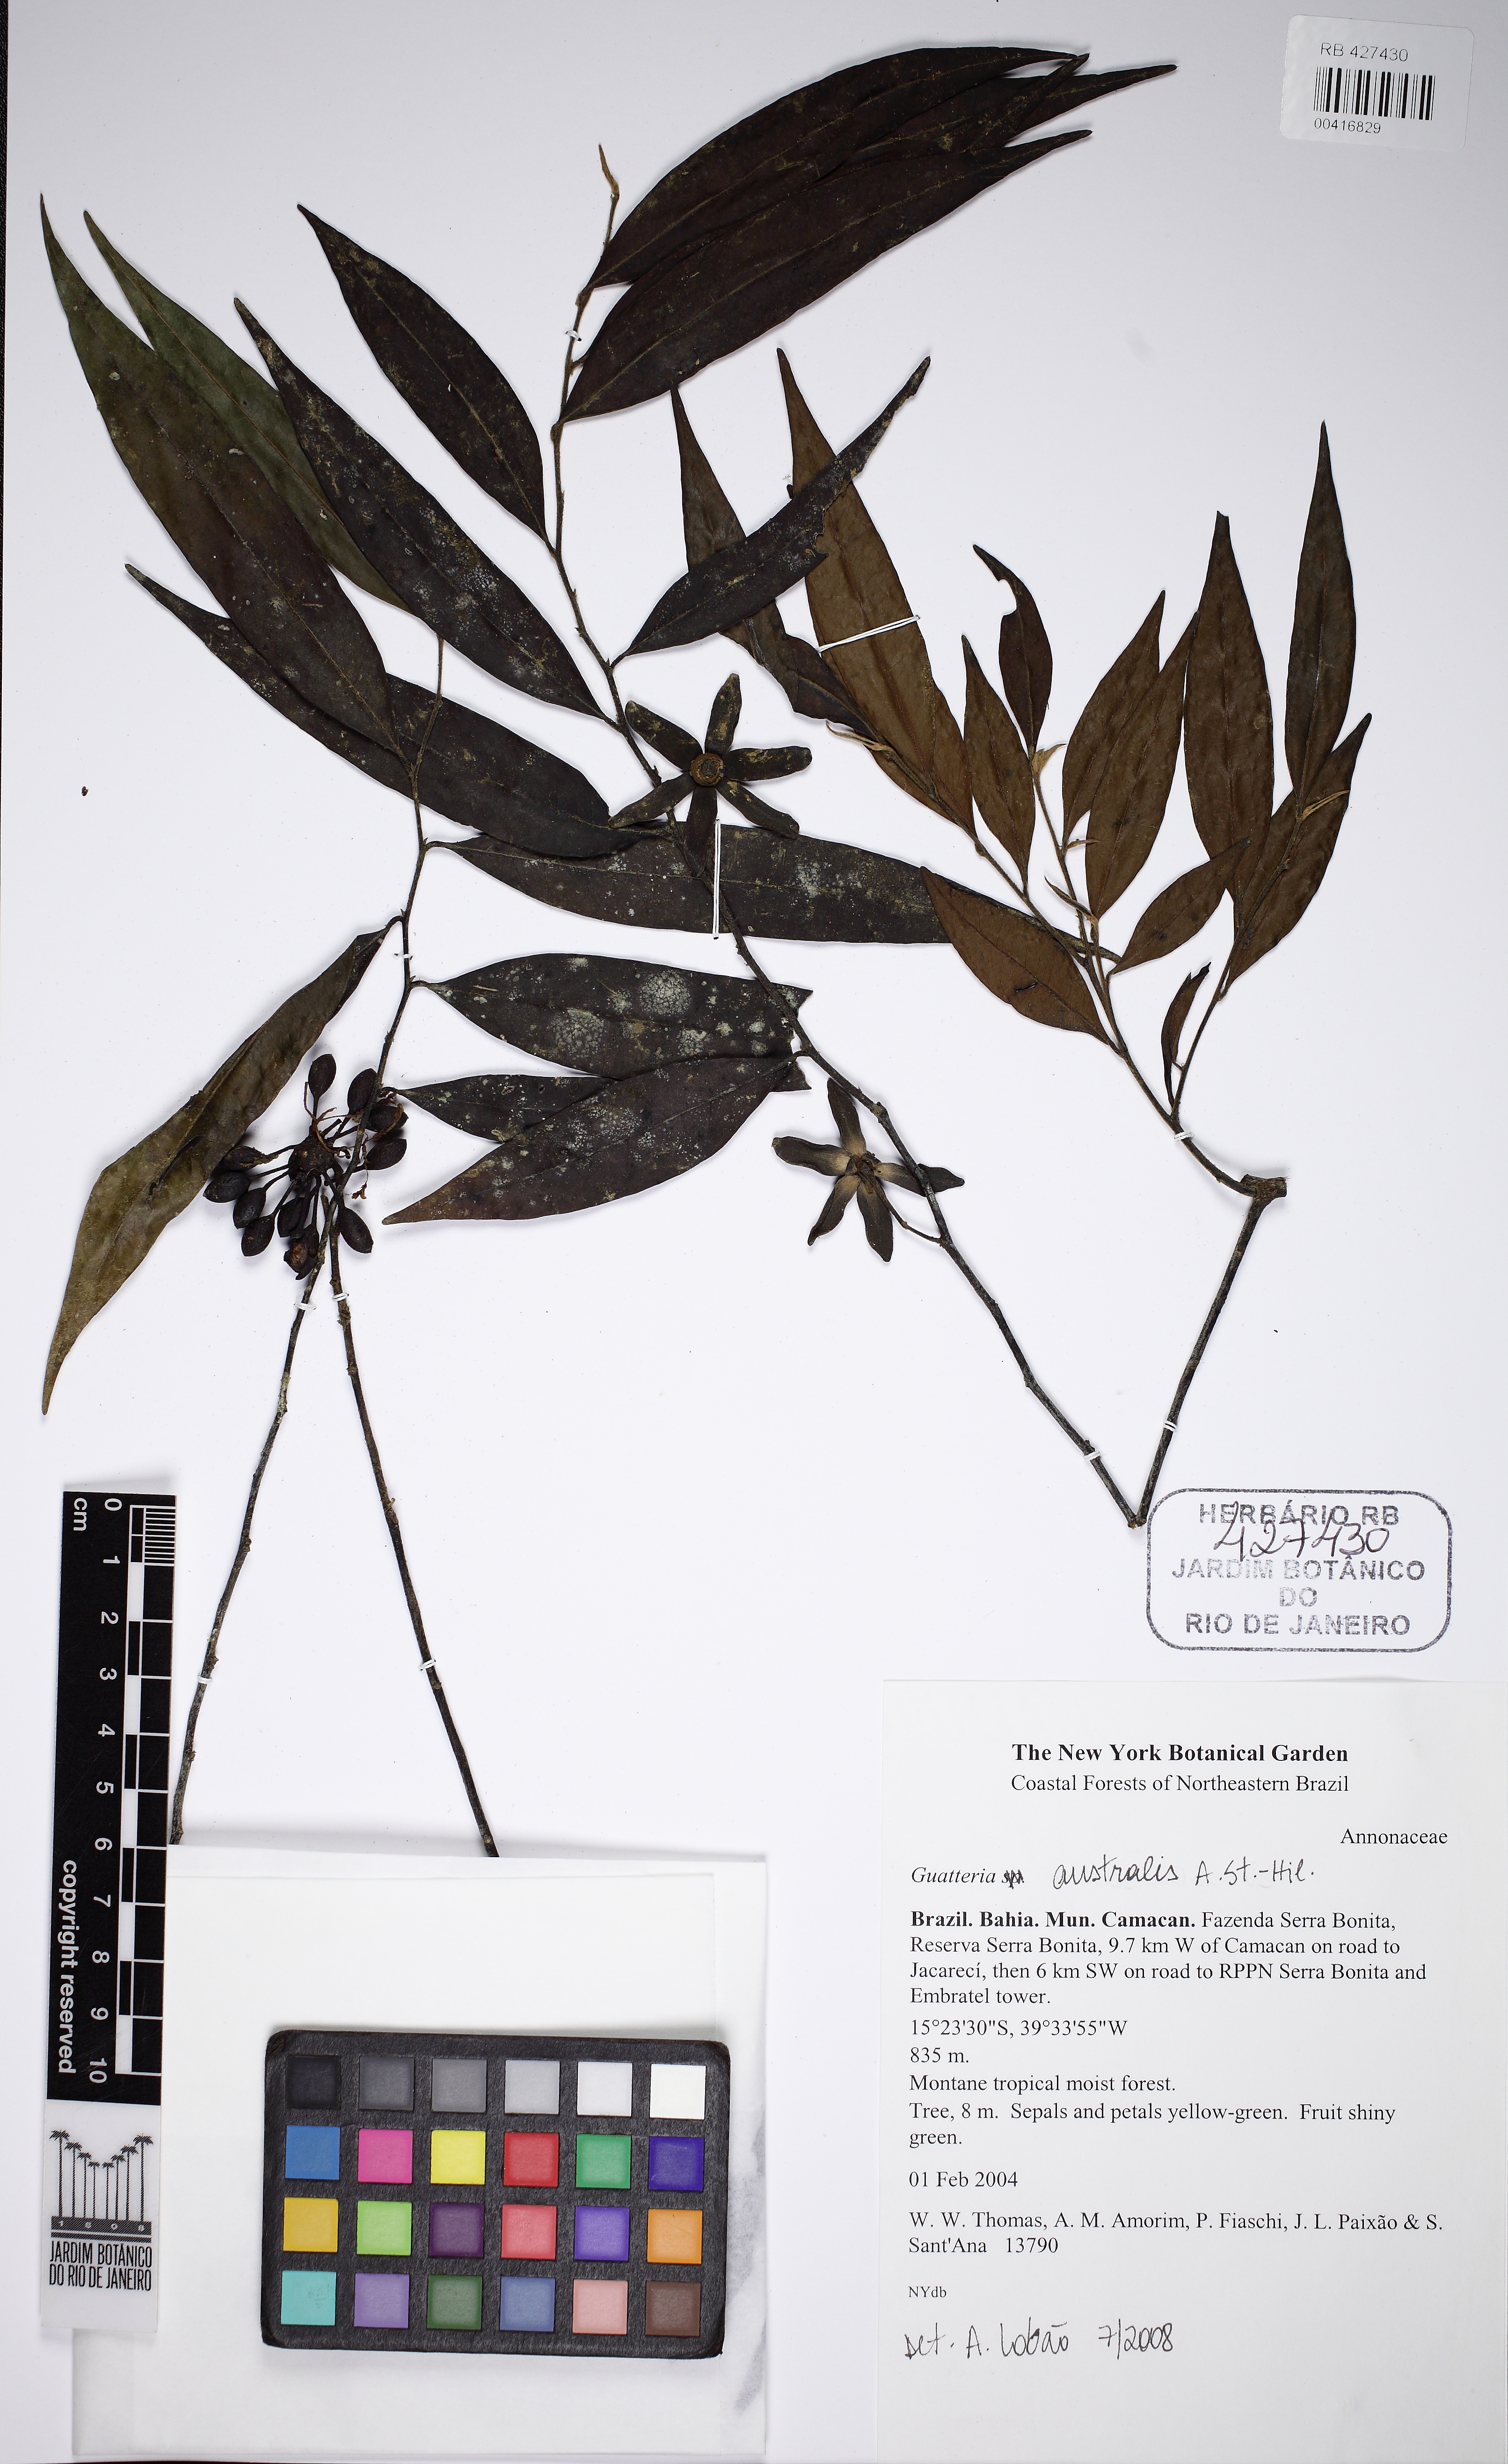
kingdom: Plantae
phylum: Tracheophyta
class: Magnoliopsida
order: Magnoliales
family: Annonaceae
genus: Guatteria
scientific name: Guatteria australis
